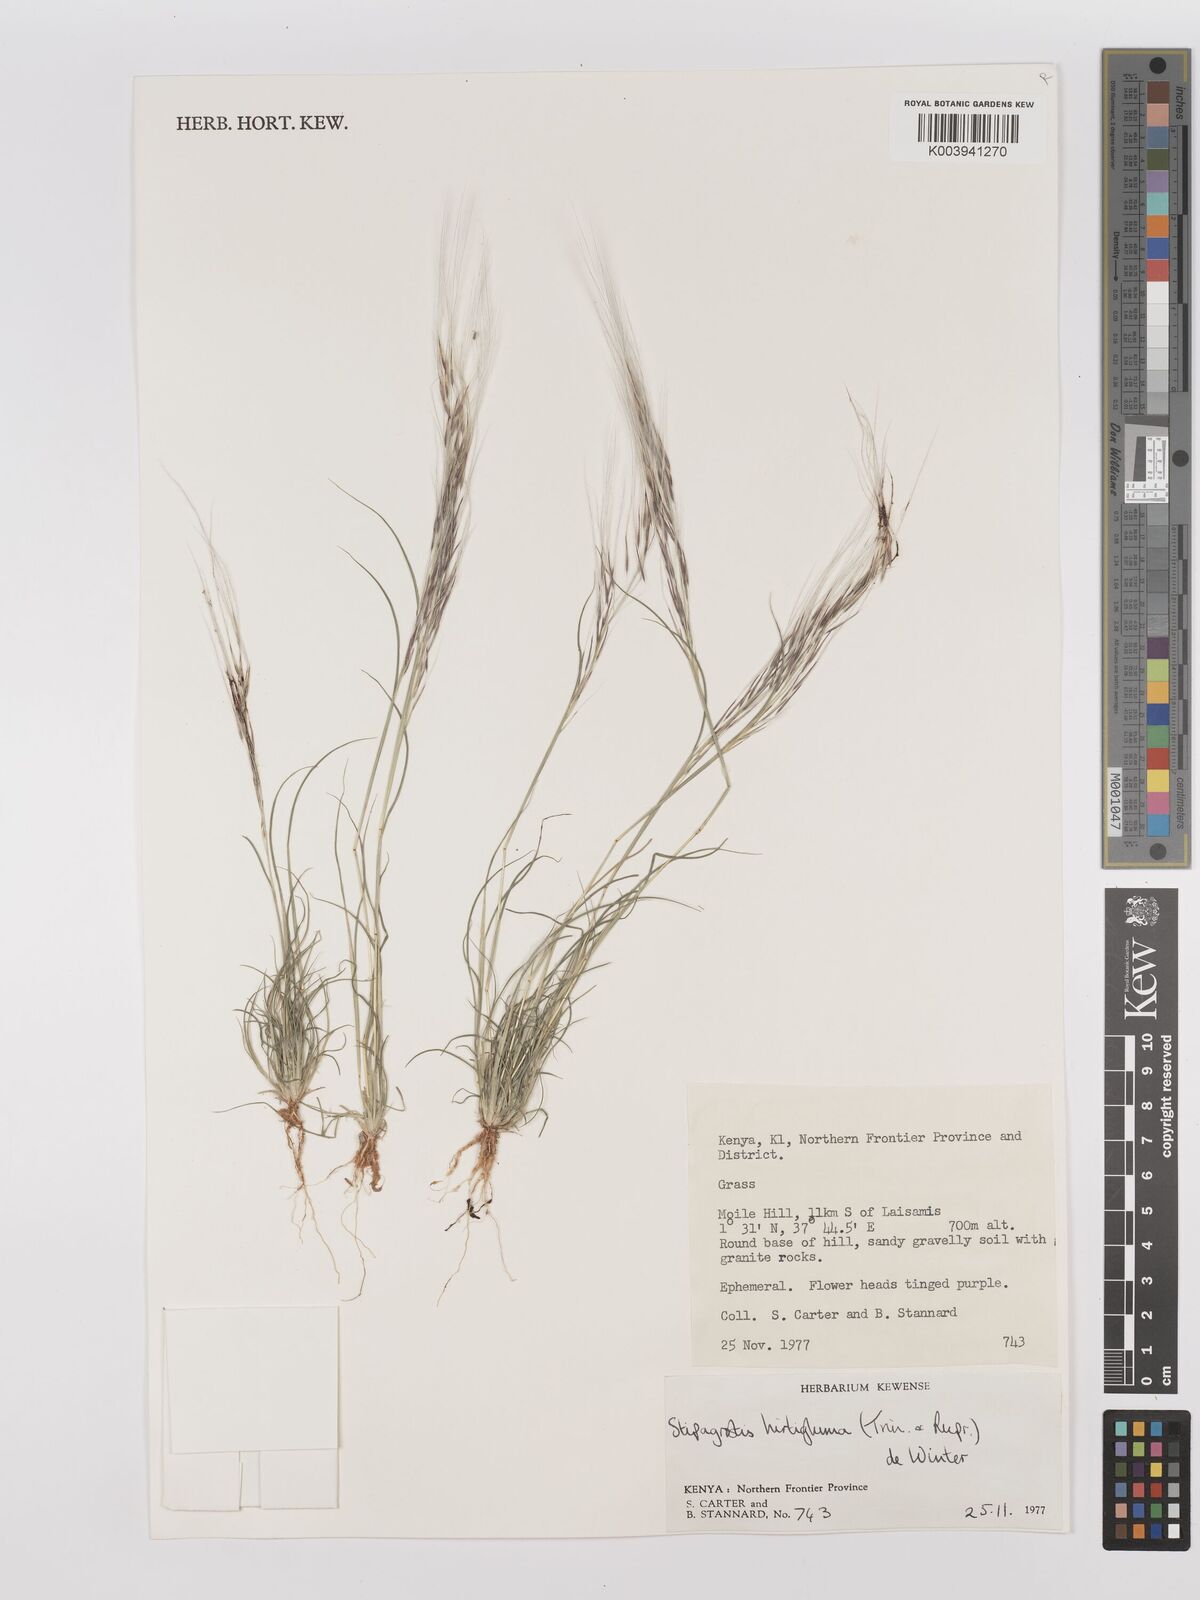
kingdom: Plantae
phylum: Tracheophyta
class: Liliopsida
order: Poales
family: Poaceae
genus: Stipagrostis
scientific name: Stipagrostis hirtigluma
